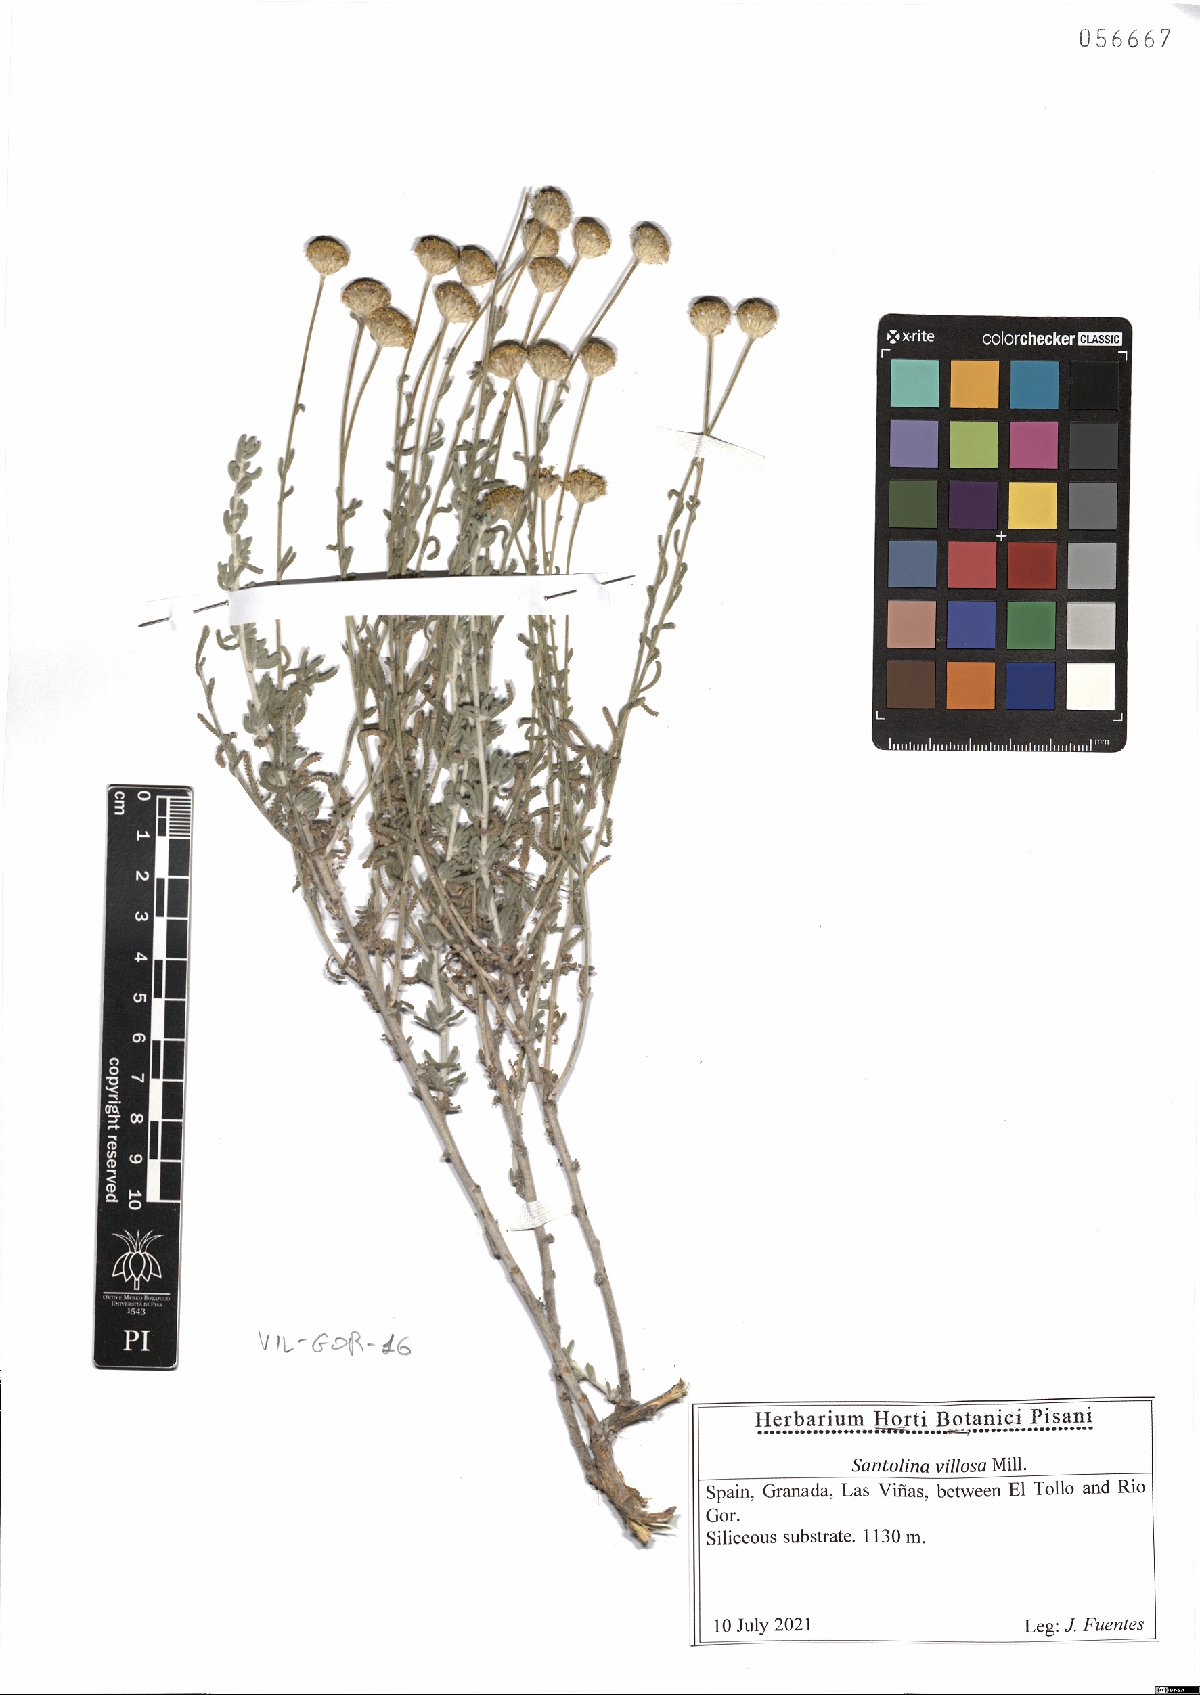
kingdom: Plantae
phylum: Tracheophyta
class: Magnoliopsida
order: Asterales
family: Asteraceae
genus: Santolina
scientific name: Santolina chamaecyparissus
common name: Lavender-cotton
